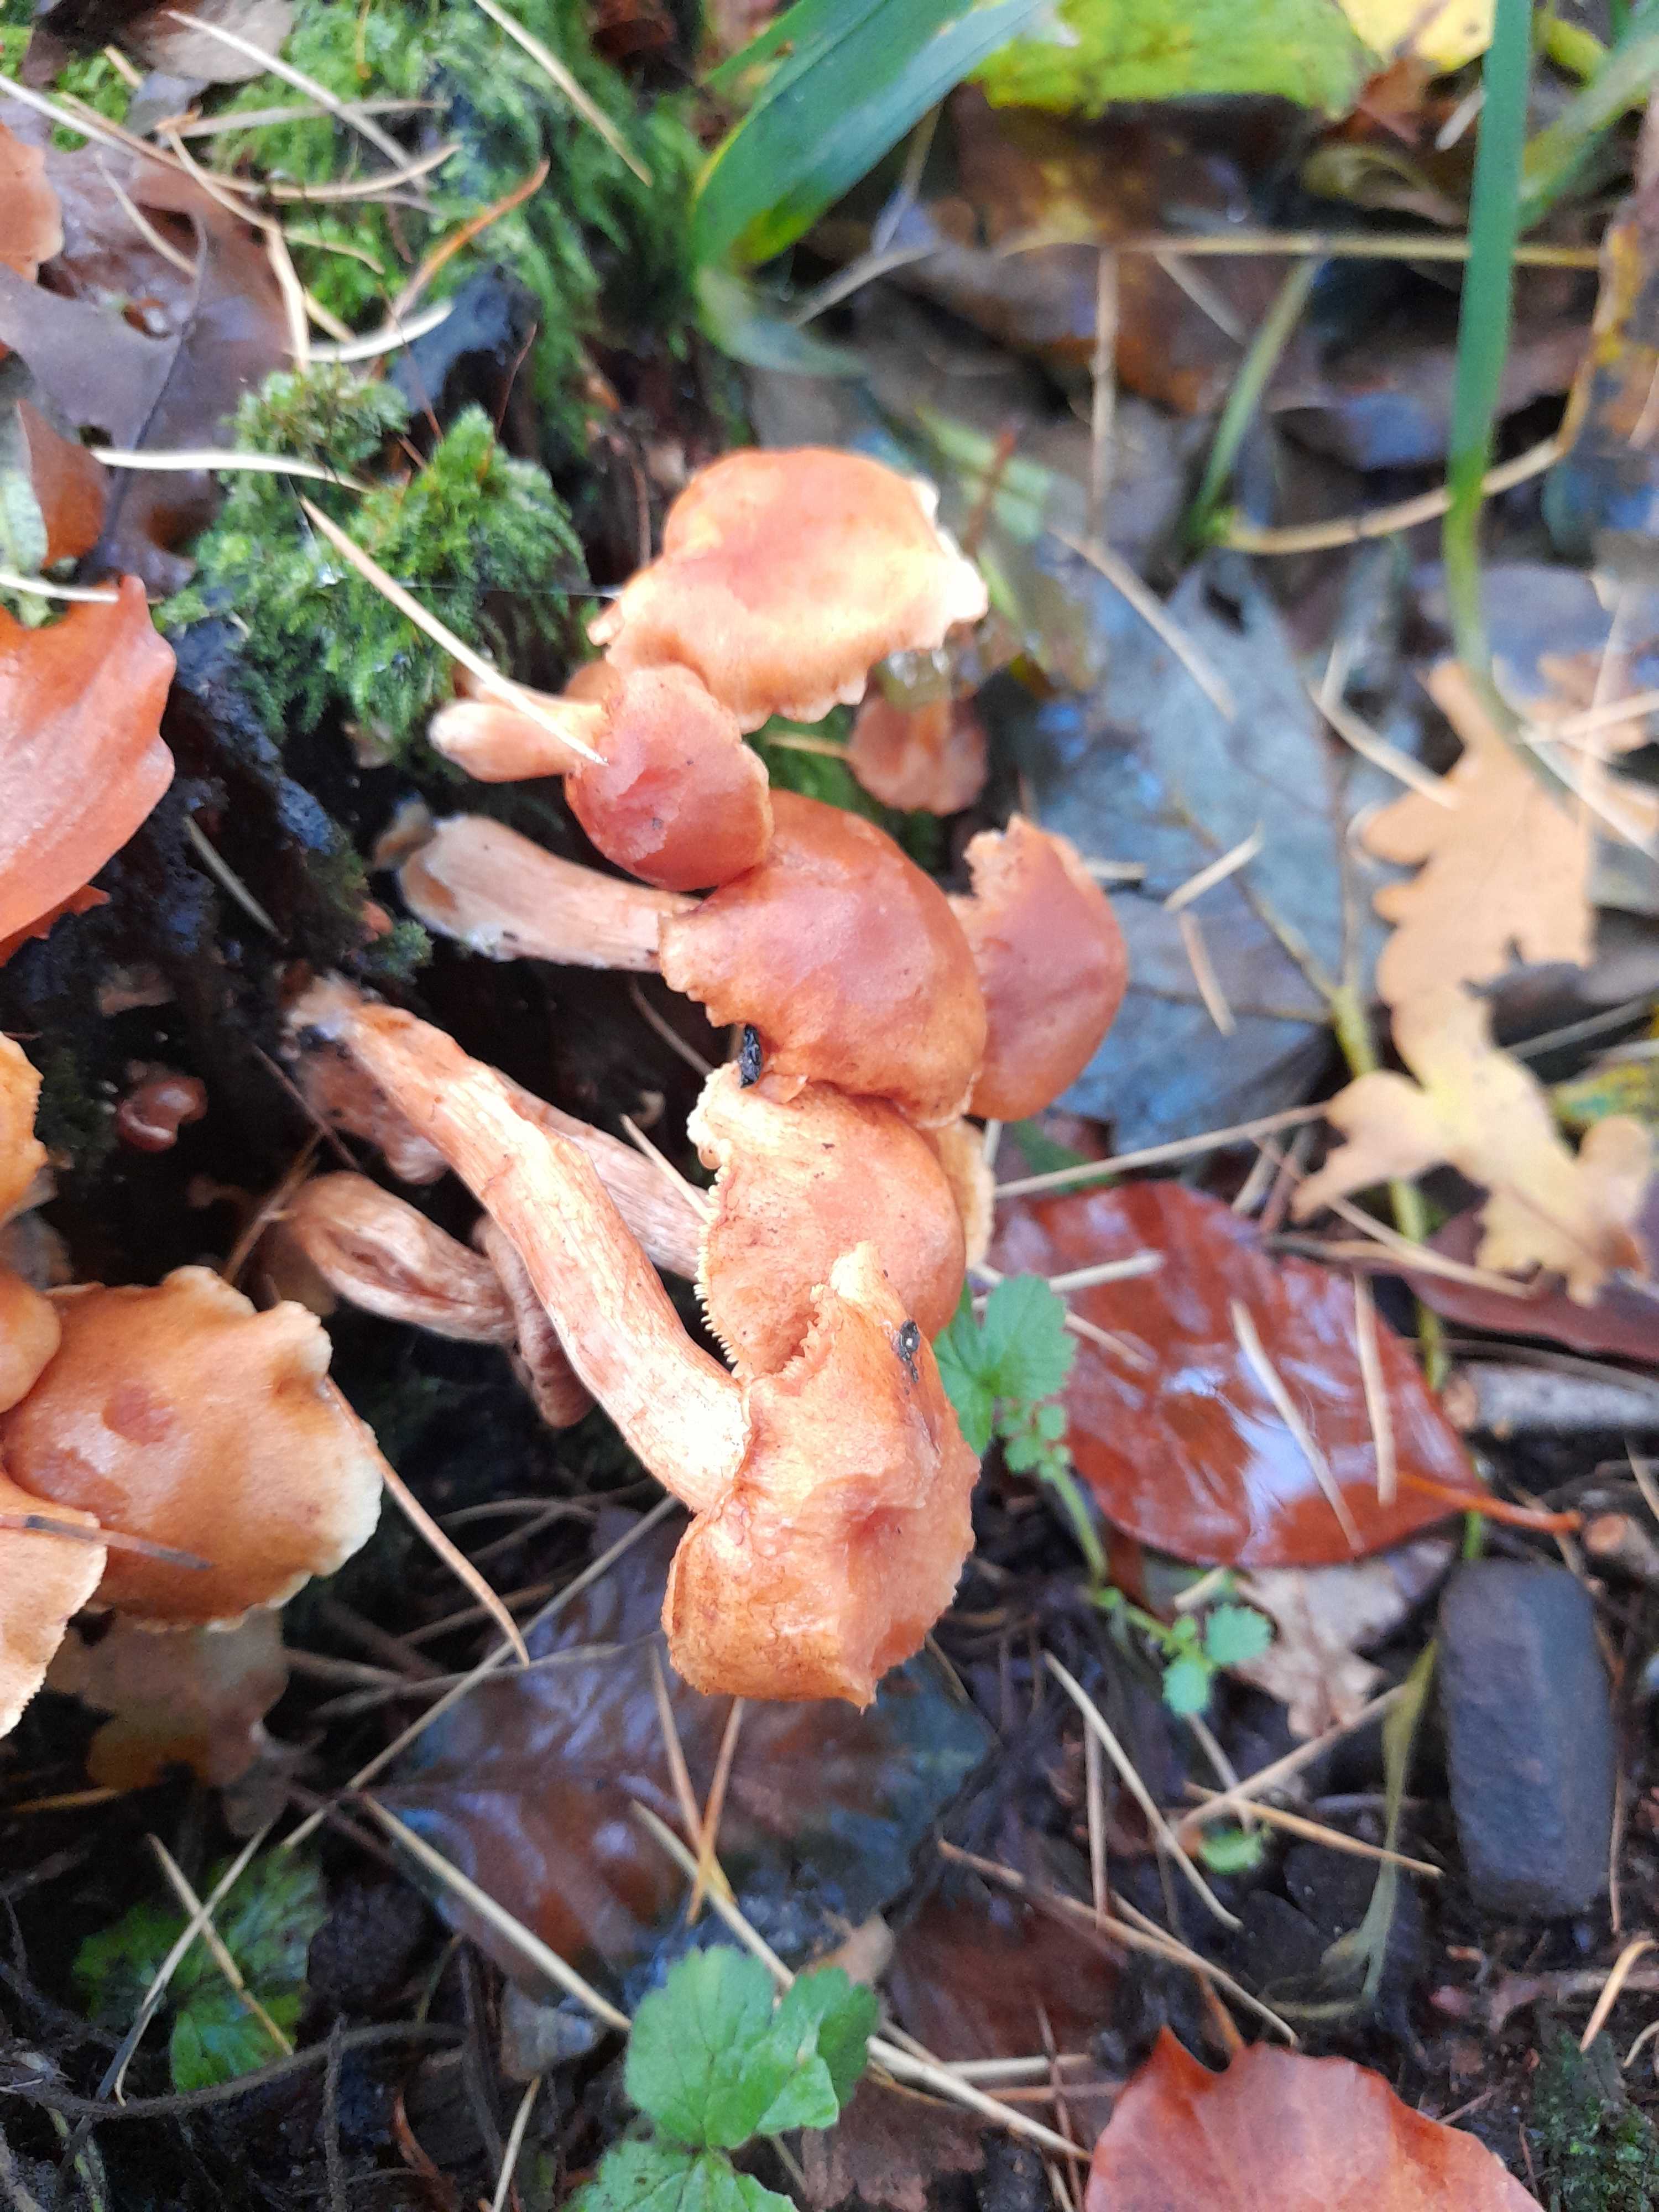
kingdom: Fungi
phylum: Basidiomycota
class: Agaricomycetes
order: Agaricales
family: Hymenogastraceae
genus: Gymnopilus
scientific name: Gymnopilus penetrans
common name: plettet flammehat
